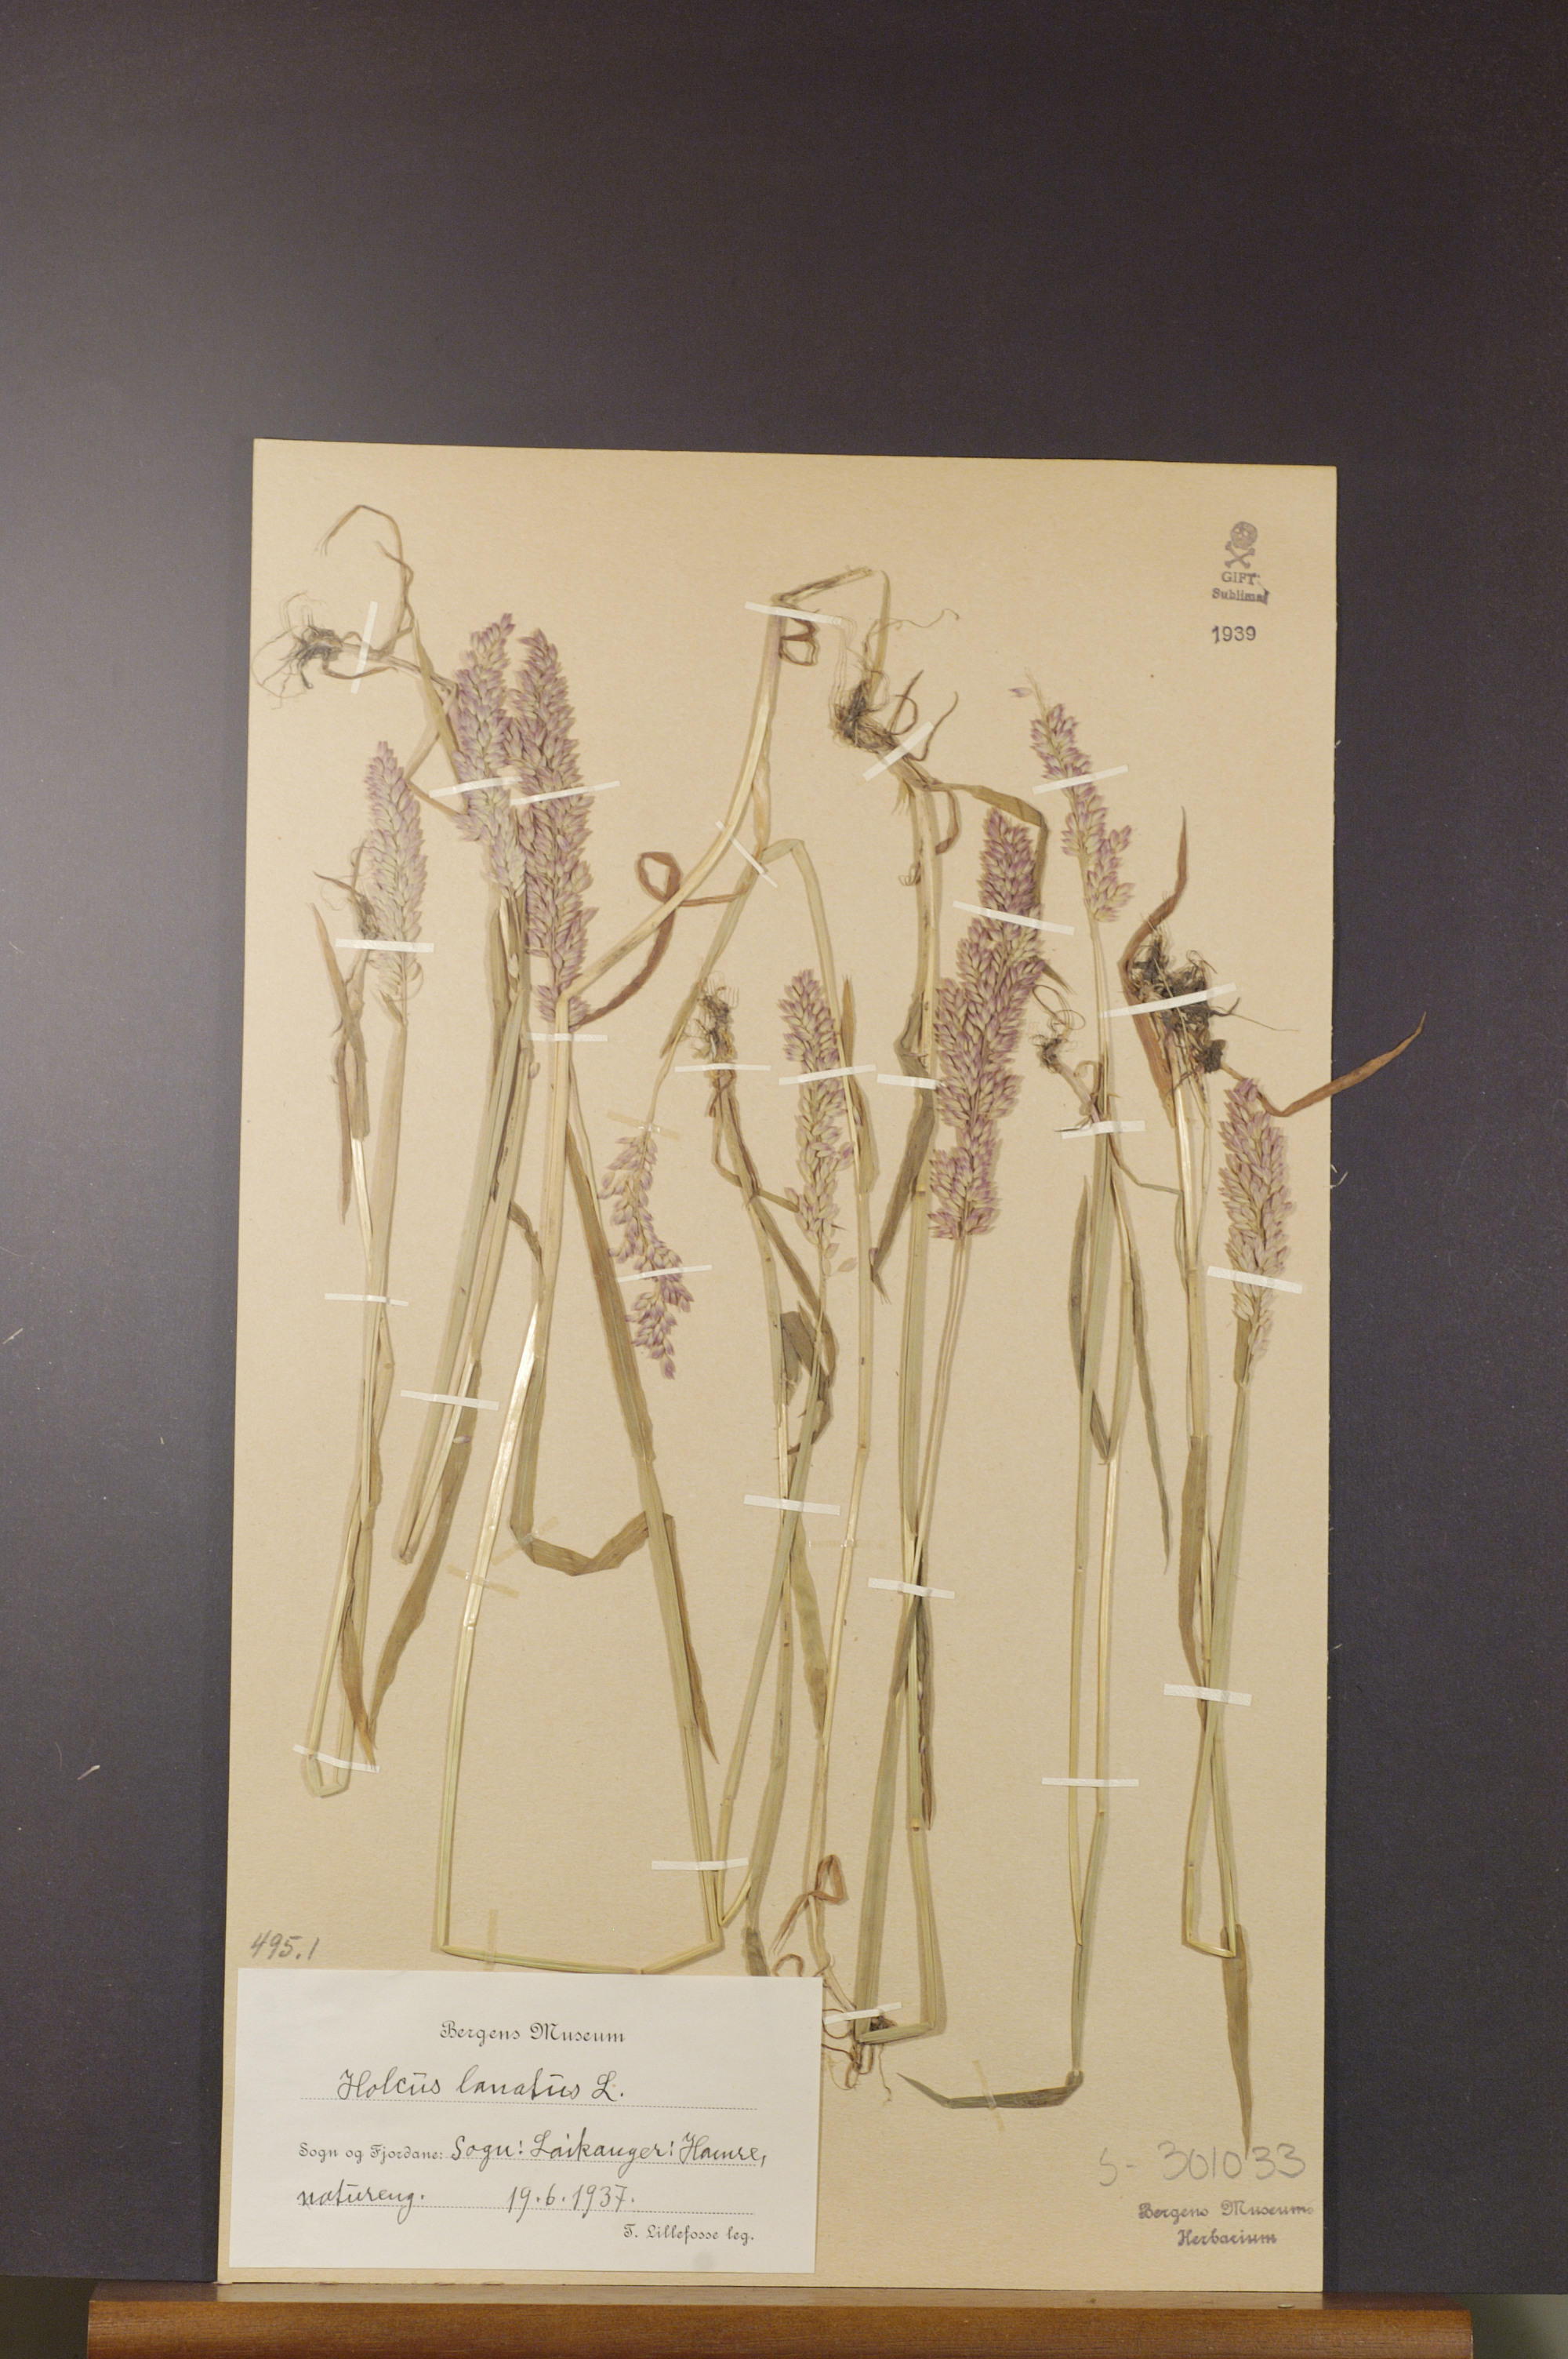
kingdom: Plantae
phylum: Tracheophyta
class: Liliopsida
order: Poales
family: Poaceae
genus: Holcus
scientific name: Holcus lanatus
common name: Yorkshire-fog
